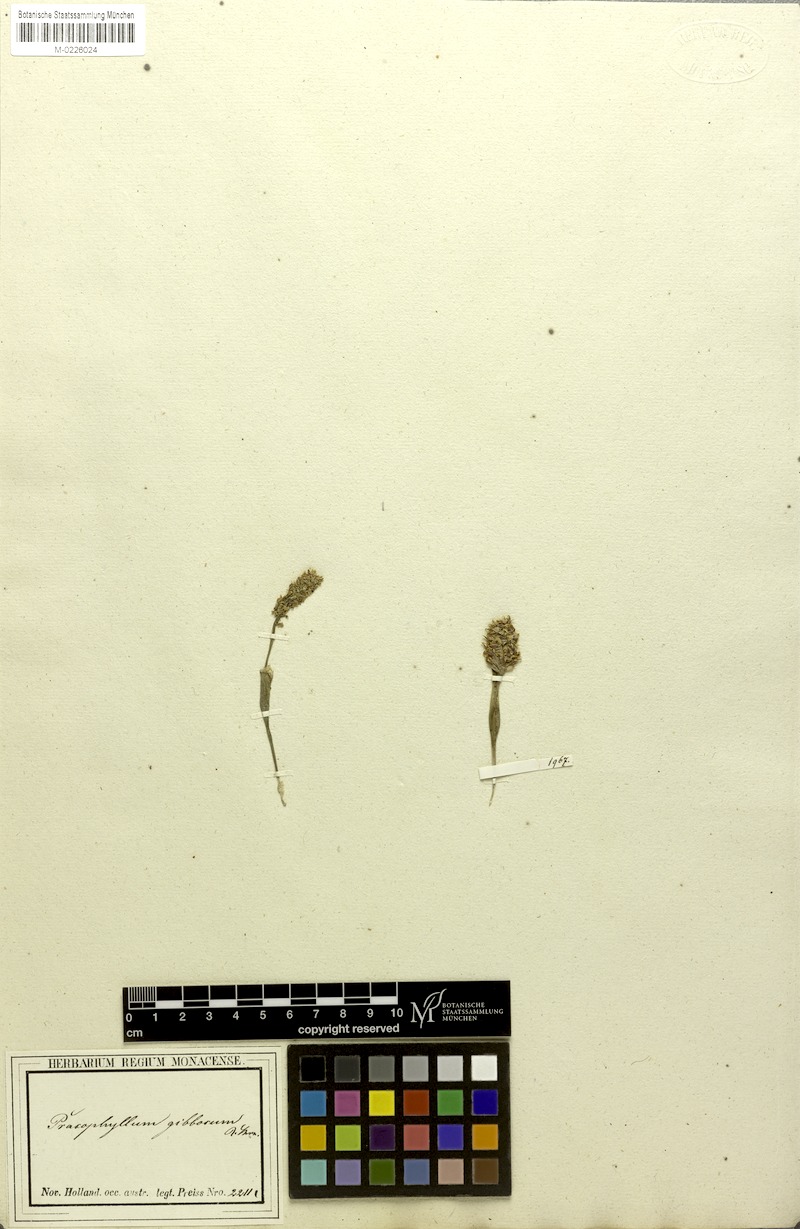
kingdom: Plantae
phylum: Tracheophyta
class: Liliopsida
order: Asparagales
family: Orchidaceae
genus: Prasophyllum
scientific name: Prasophyllum cucullatum
